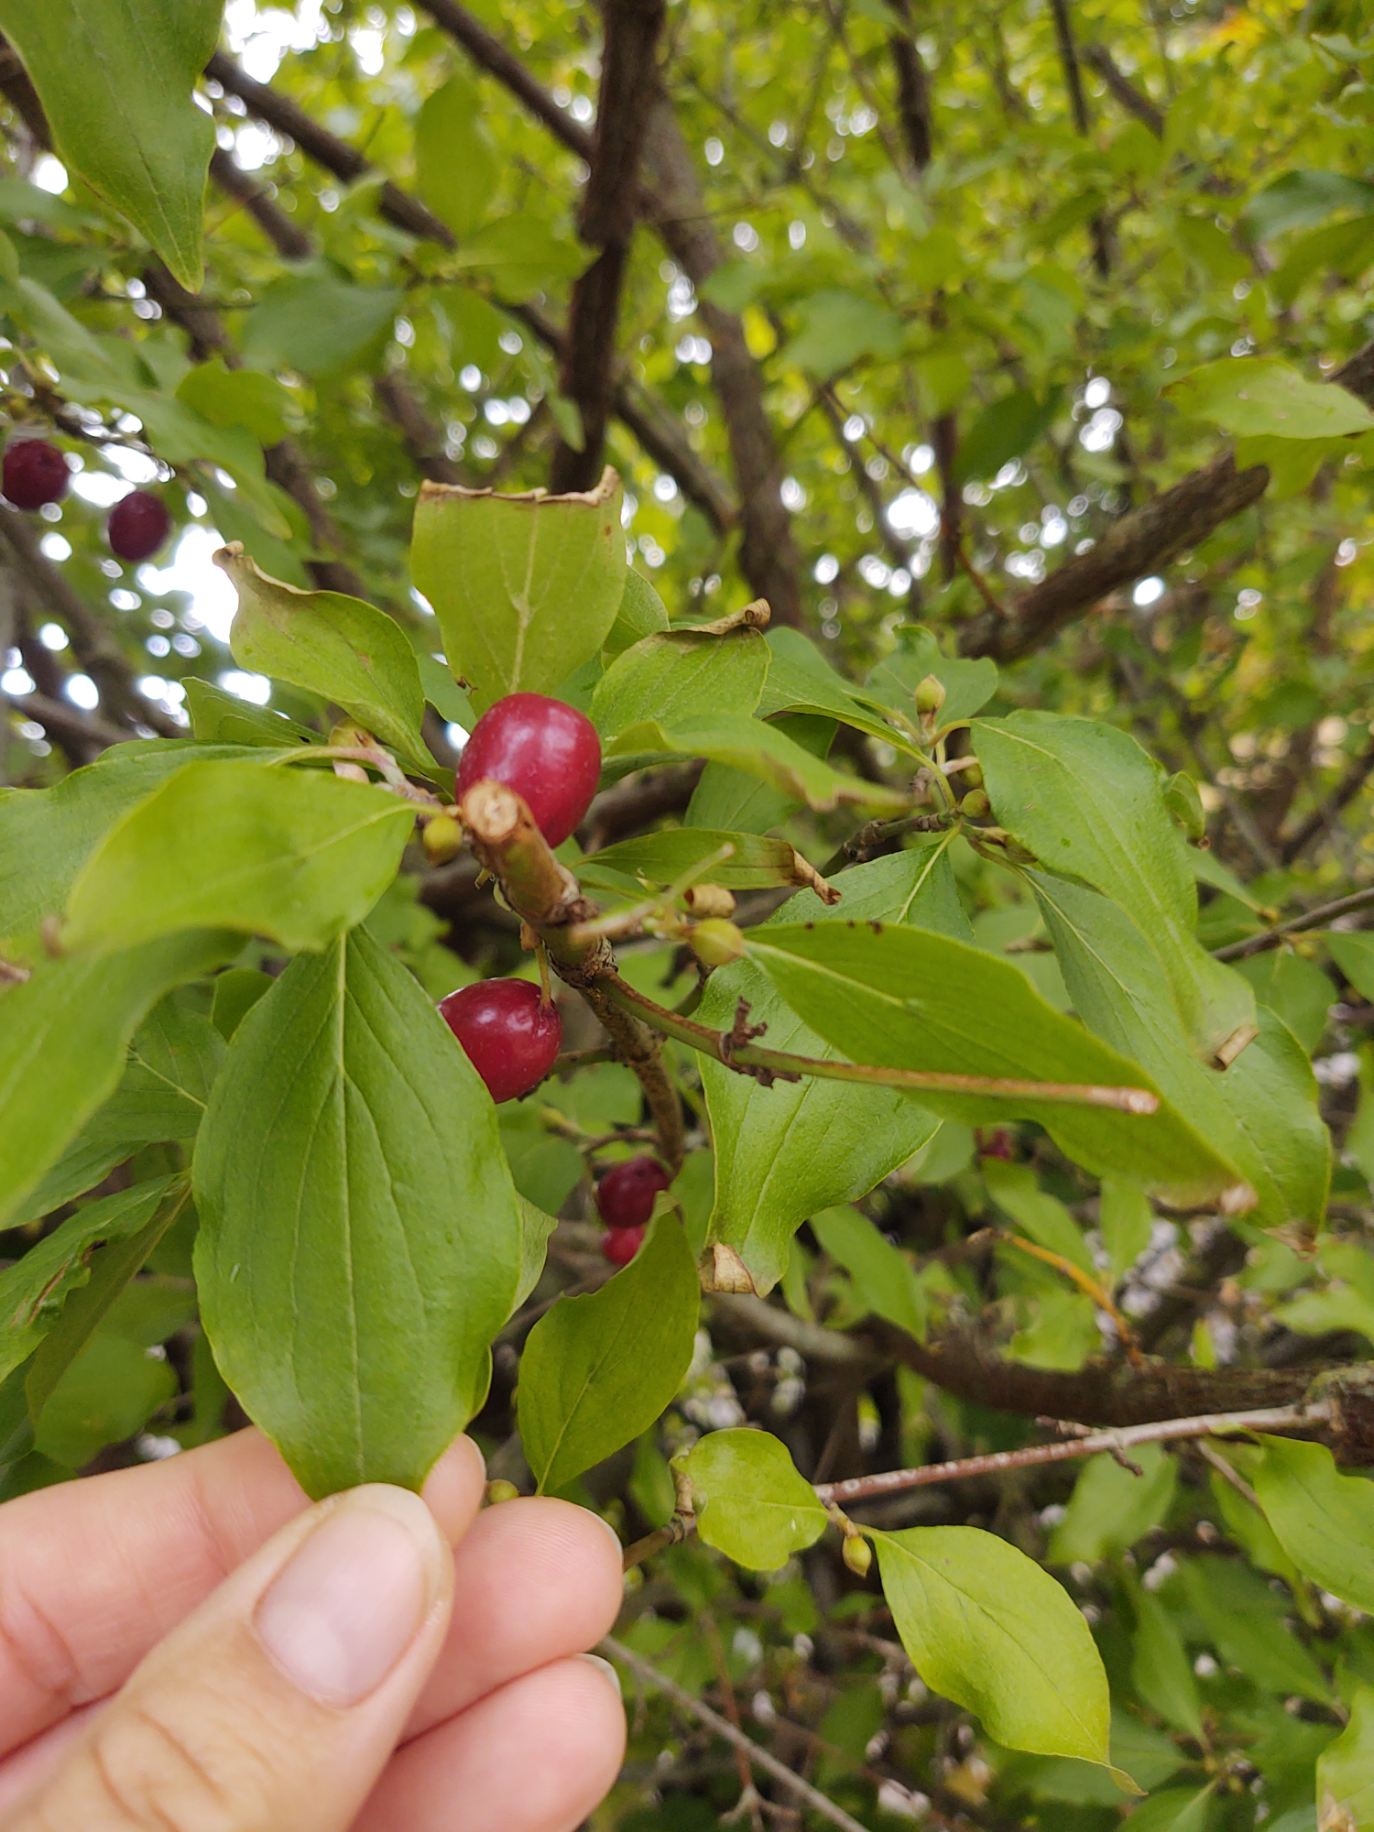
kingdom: Plantae
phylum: Tracheophyta
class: Magnoliopsida
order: Cornales
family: Cornaceae
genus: Cornus
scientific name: Cornus mas
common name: Kirsebær-kornel
